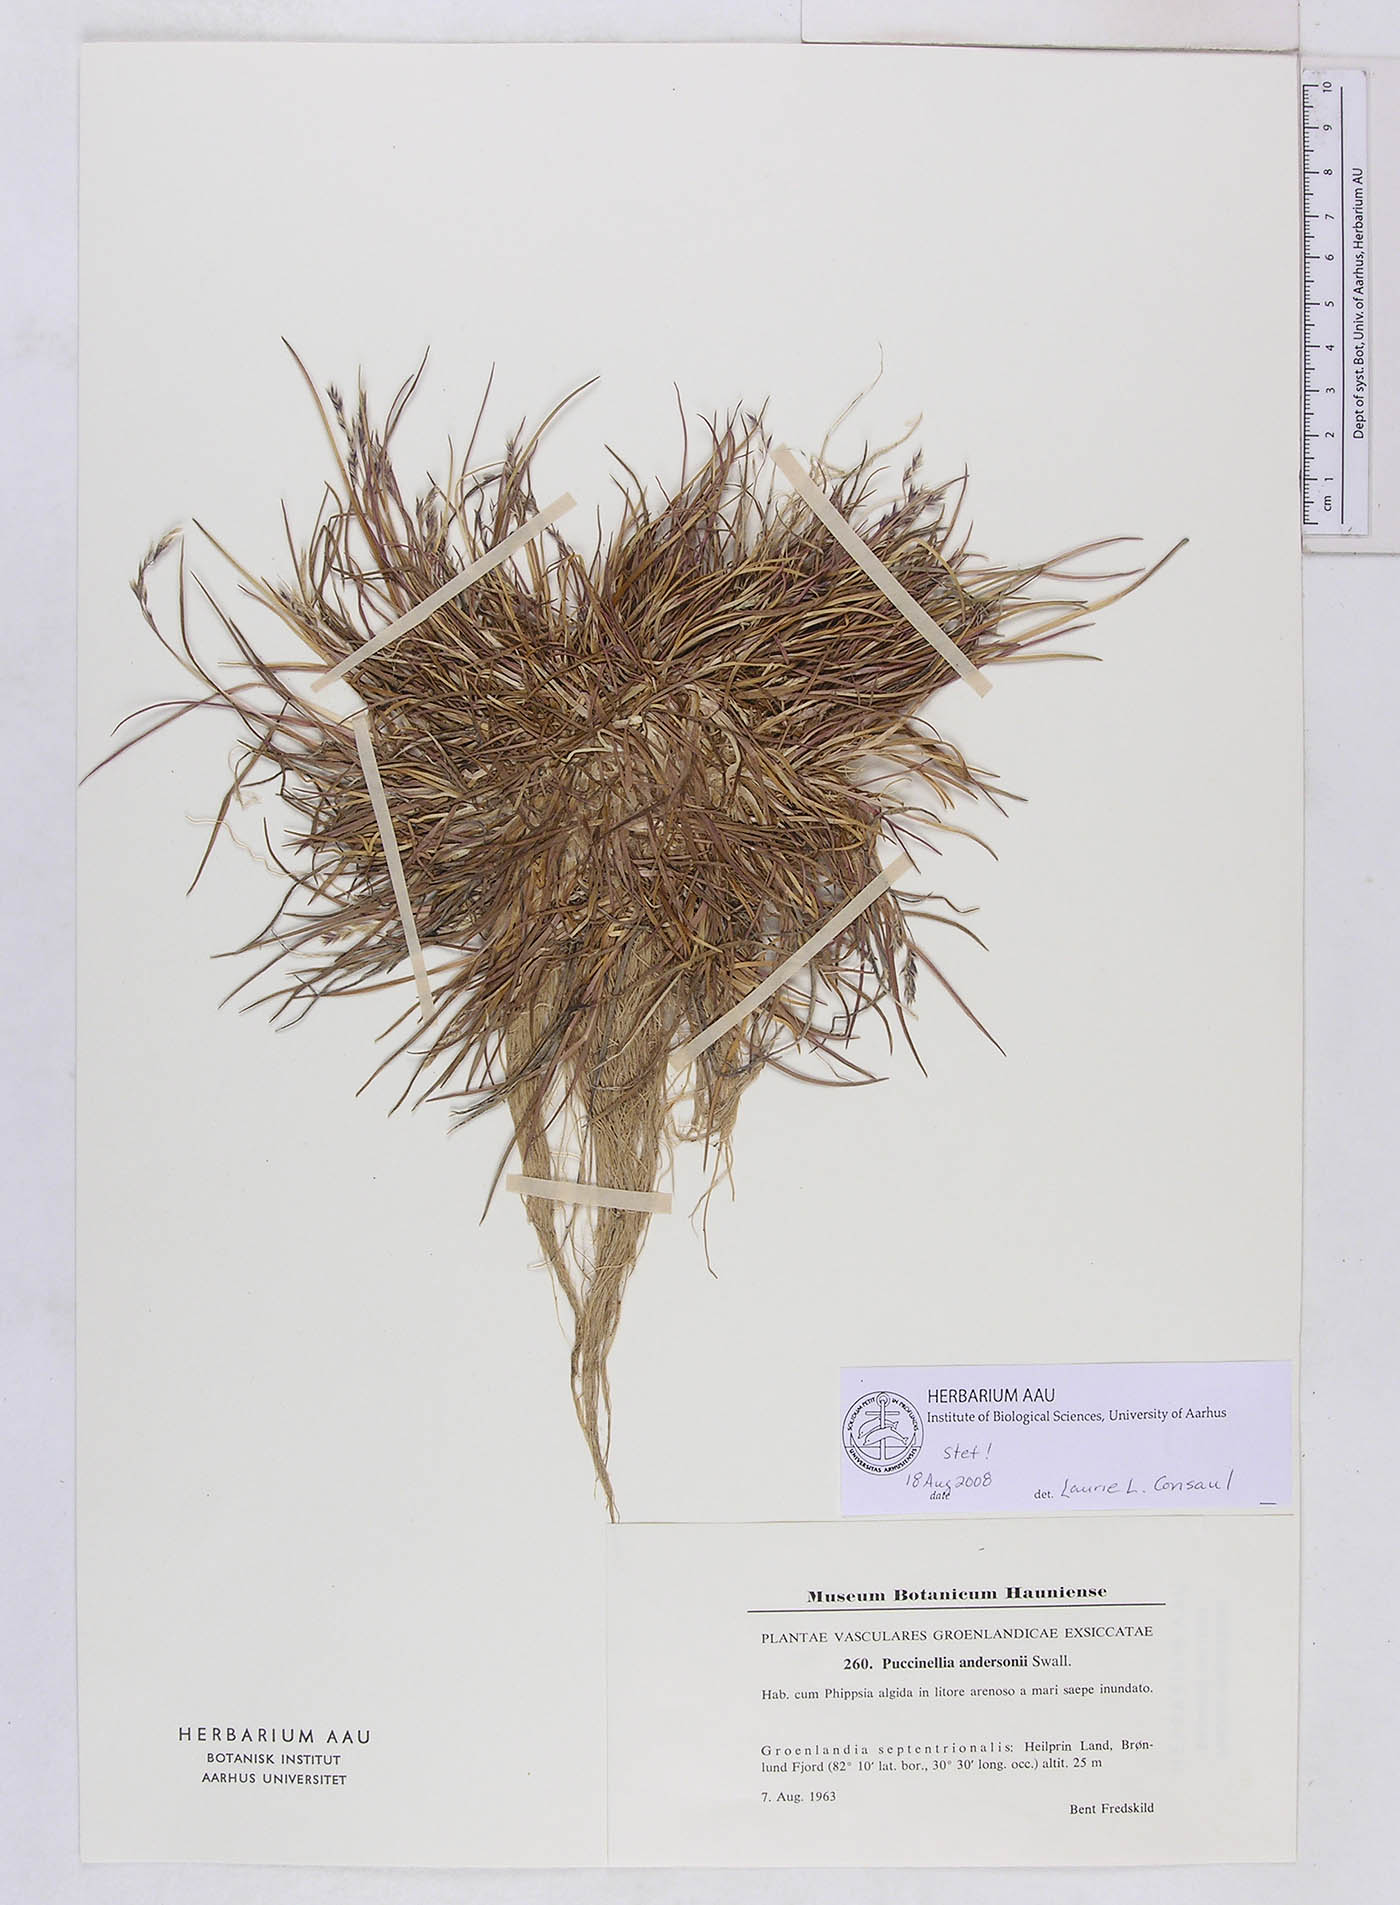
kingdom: Plantae
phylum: Tracheophyta
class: Liliopsida
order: Poales
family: Poaceae
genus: Puccinellia
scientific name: Puccinellia andersonii
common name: Anderson's alkali grass
